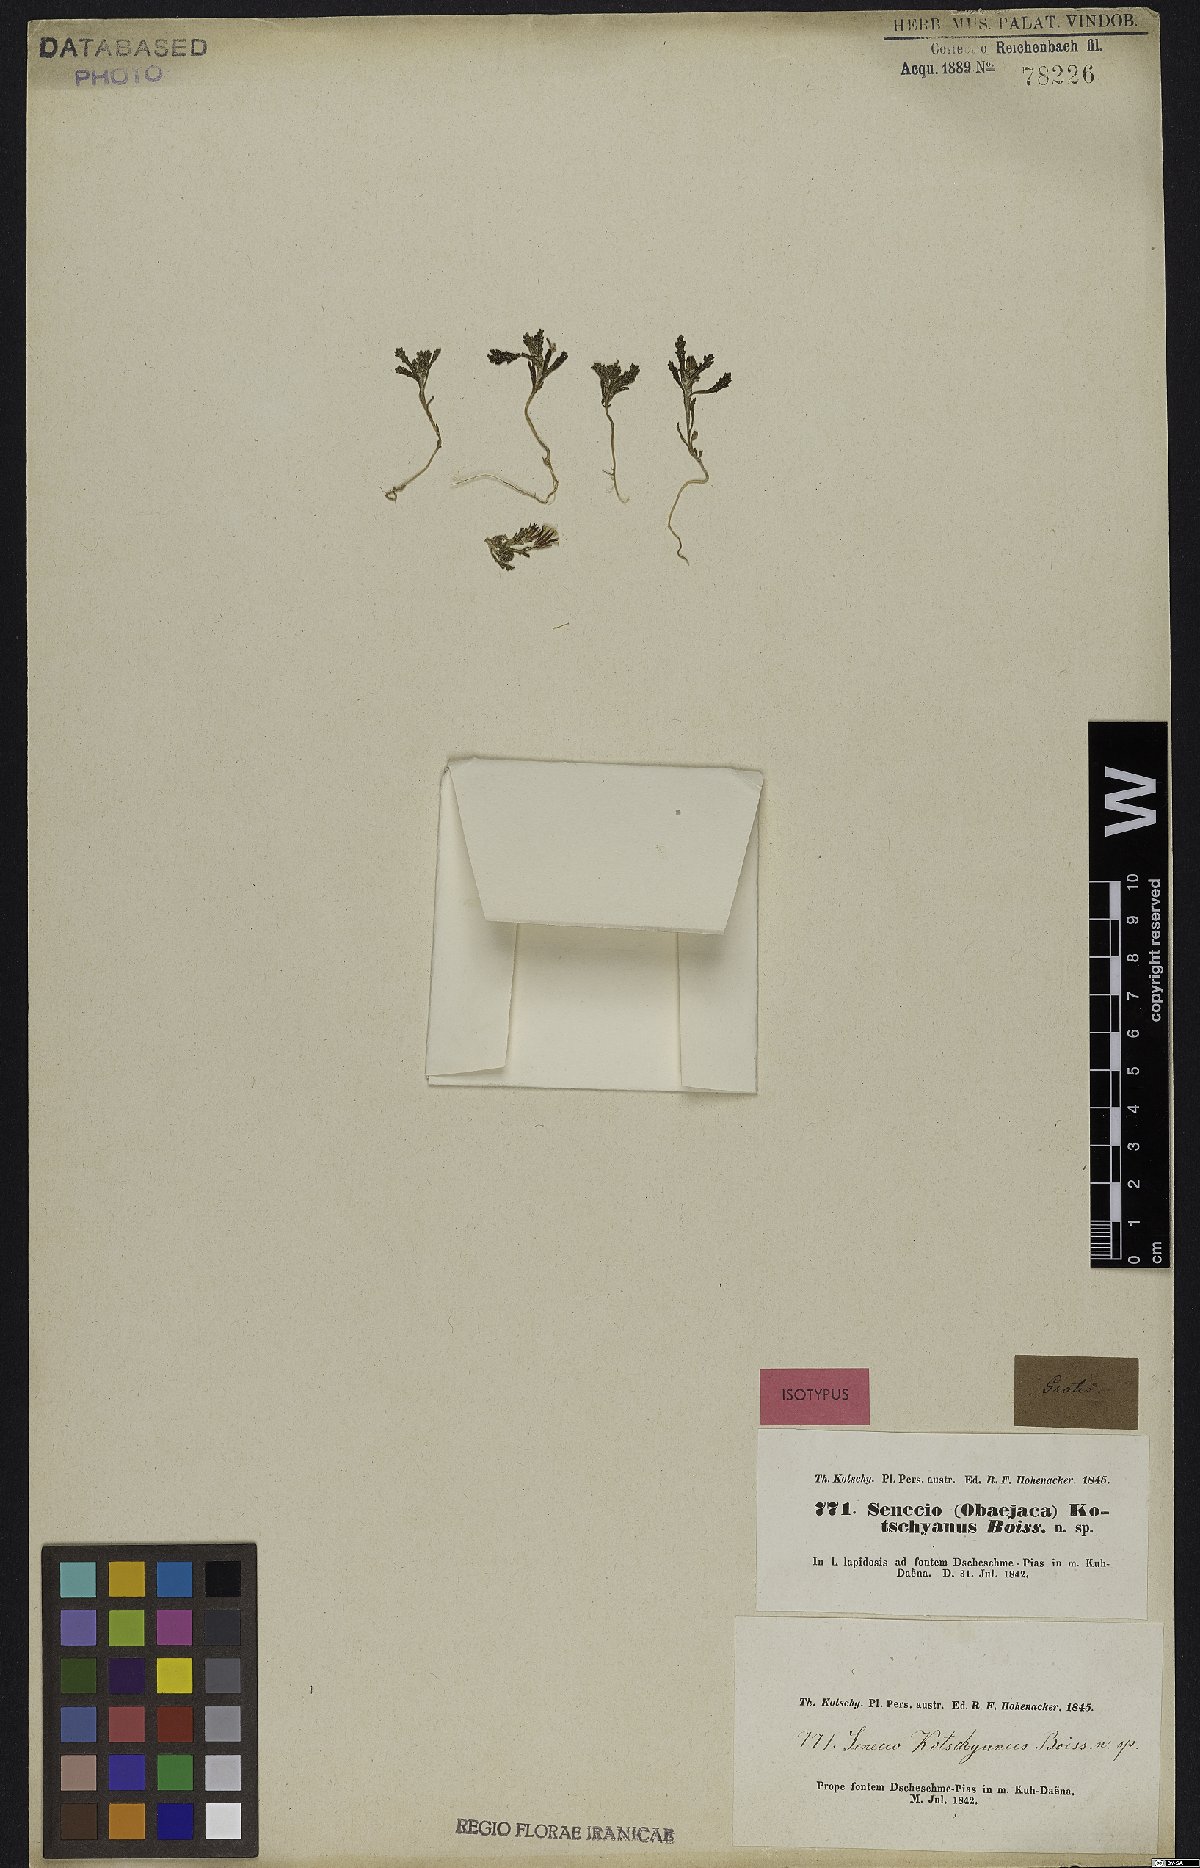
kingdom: Plantae
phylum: Tracheophyta
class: Magnoliopsida
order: Asterales
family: Asteraceae
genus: Senecio
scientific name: Senecio kotschyanus
